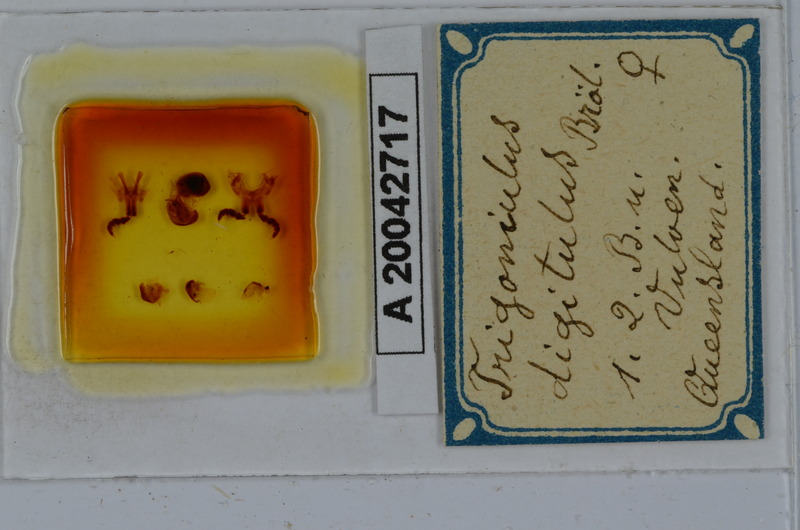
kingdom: Animalia
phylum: Arthropoda
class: Diplopoda
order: Spirobolida
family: Pachybolidae
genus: Trigoniulus
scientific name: Trigoniulus digitulus
